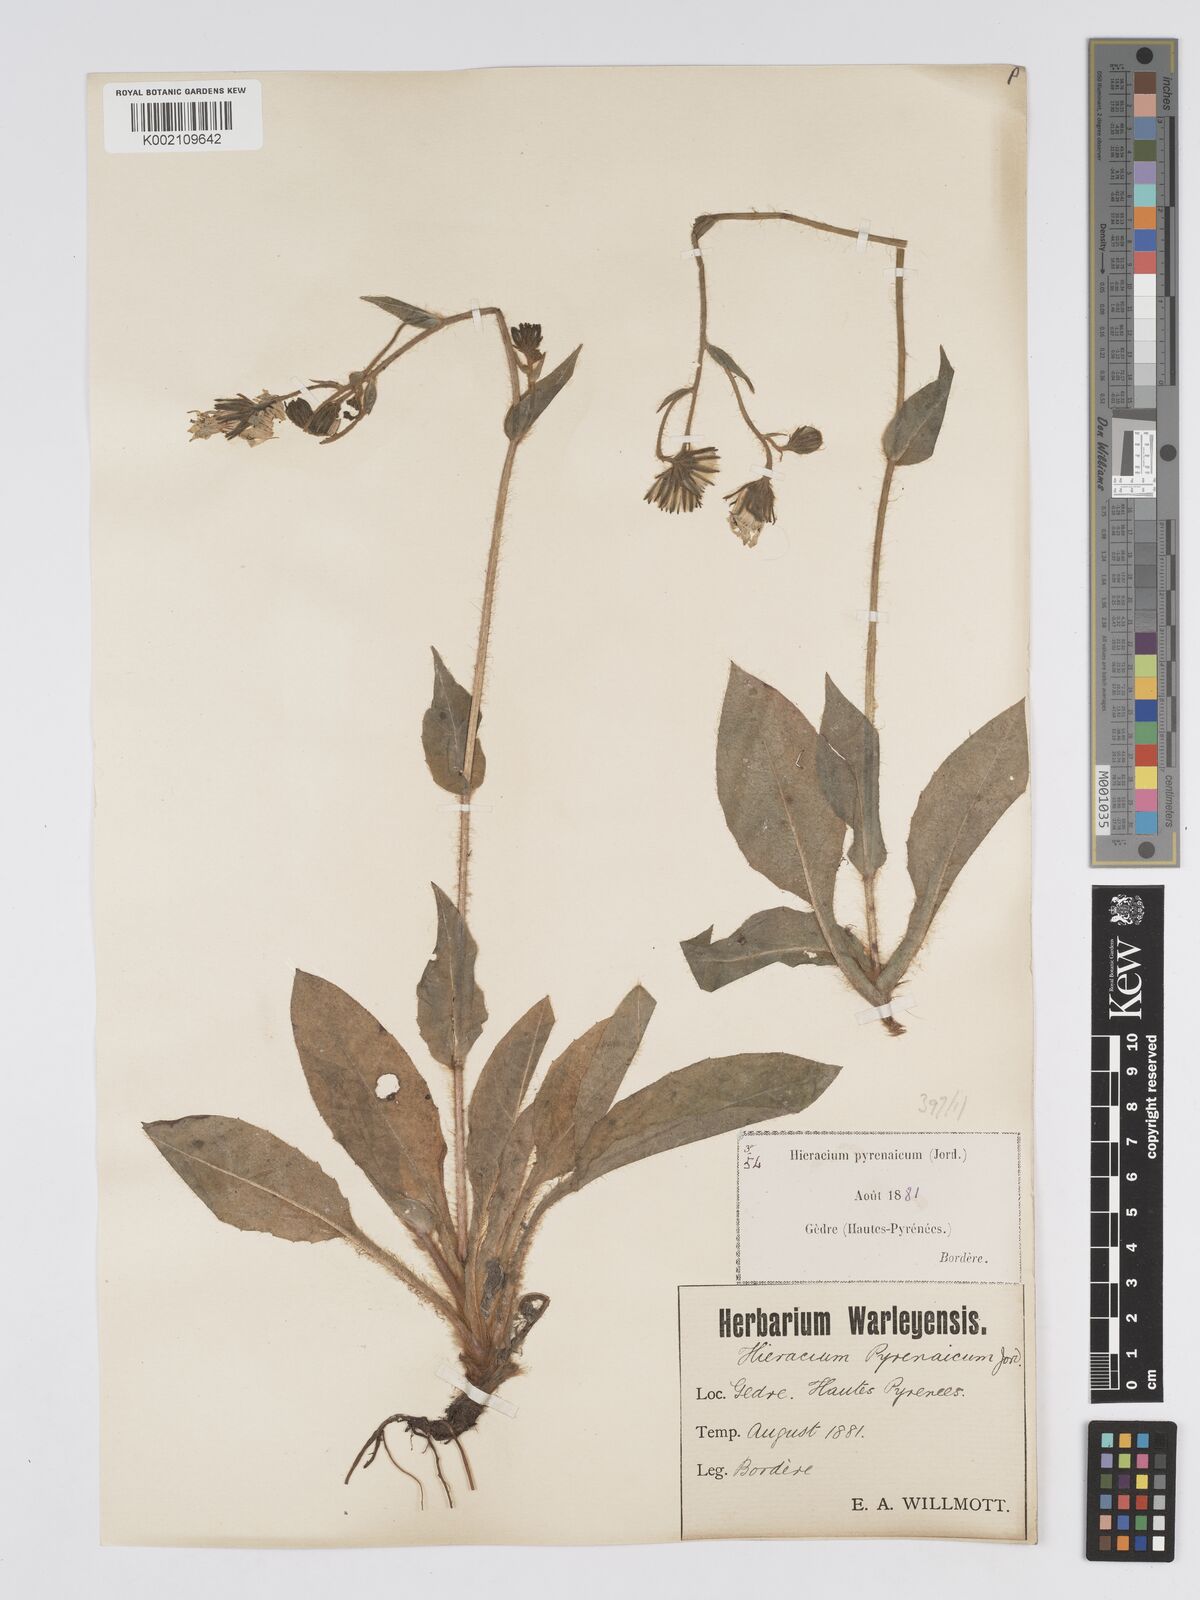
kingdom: Plantae
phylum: Tracheophyta
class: Magnoliopsida
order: Asterales
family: Asteraceae
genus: Hieracium
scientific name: Hieracium nobile
